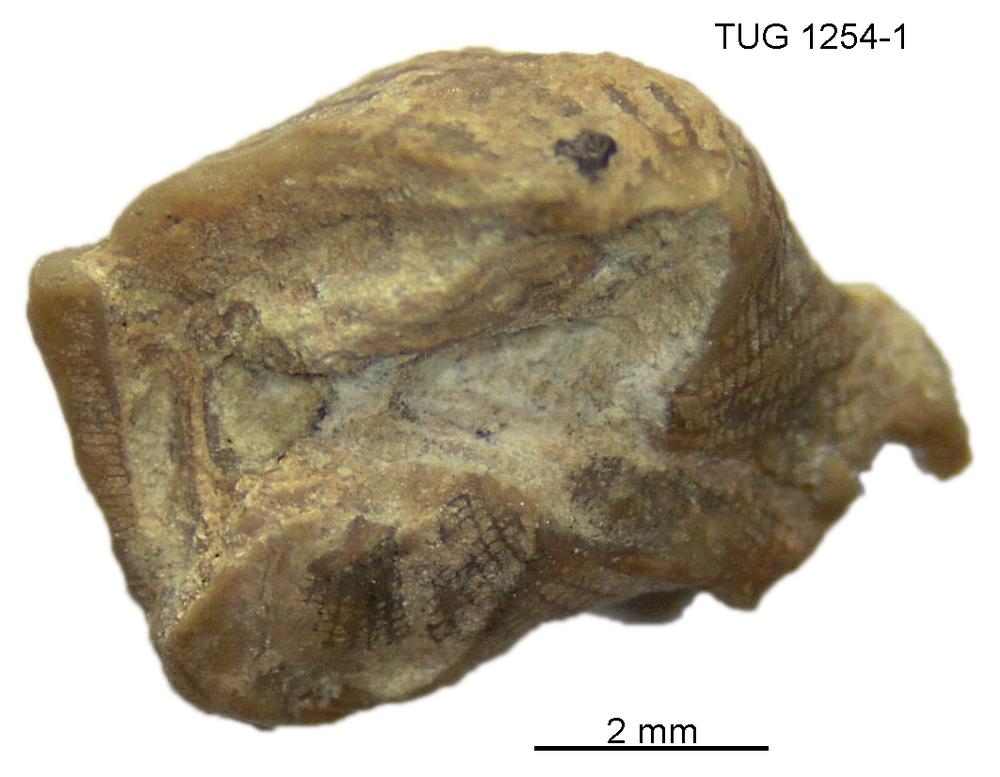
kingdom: Animalia
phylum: Mollusca
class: Rostroconchia
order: Conocardiida
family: Bransoniidae
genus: Mulceodens
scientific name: Mulceodens
